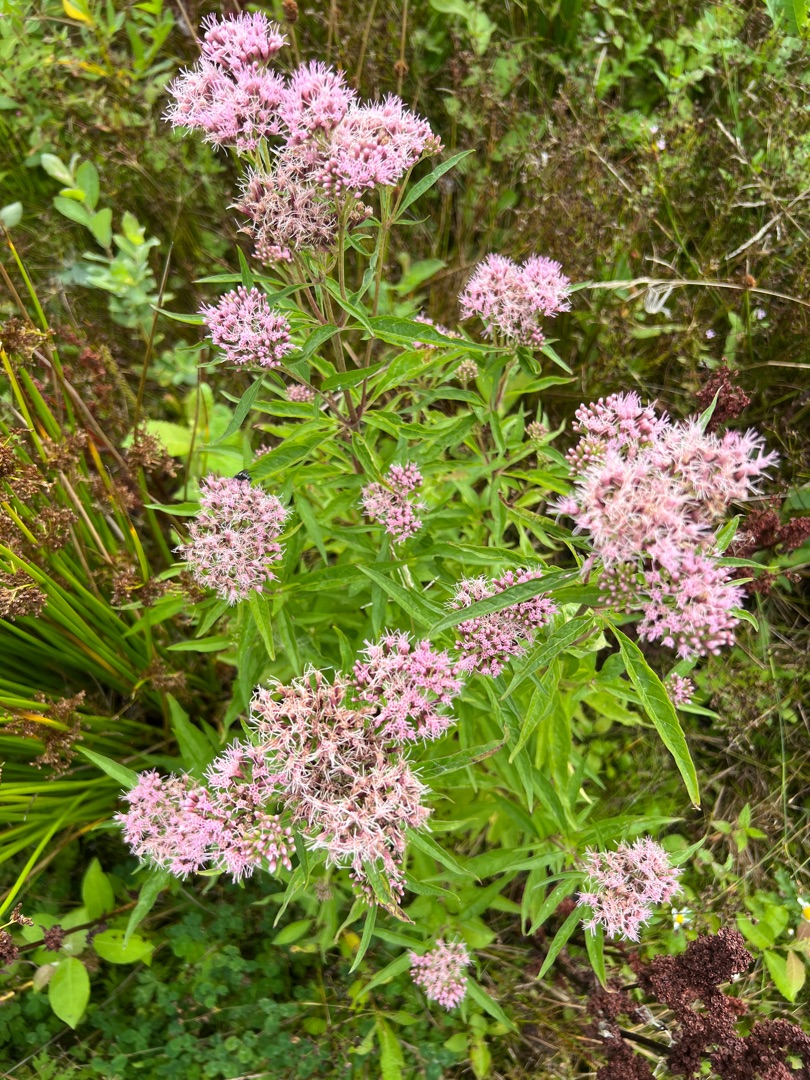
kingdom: Plantae
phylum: Tracheophyta
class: Magnoliopsida
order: Asterales
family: Asteraceae
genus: Eupatorium
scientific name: Eupatorium cannabinum
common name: Hjortetrøst
